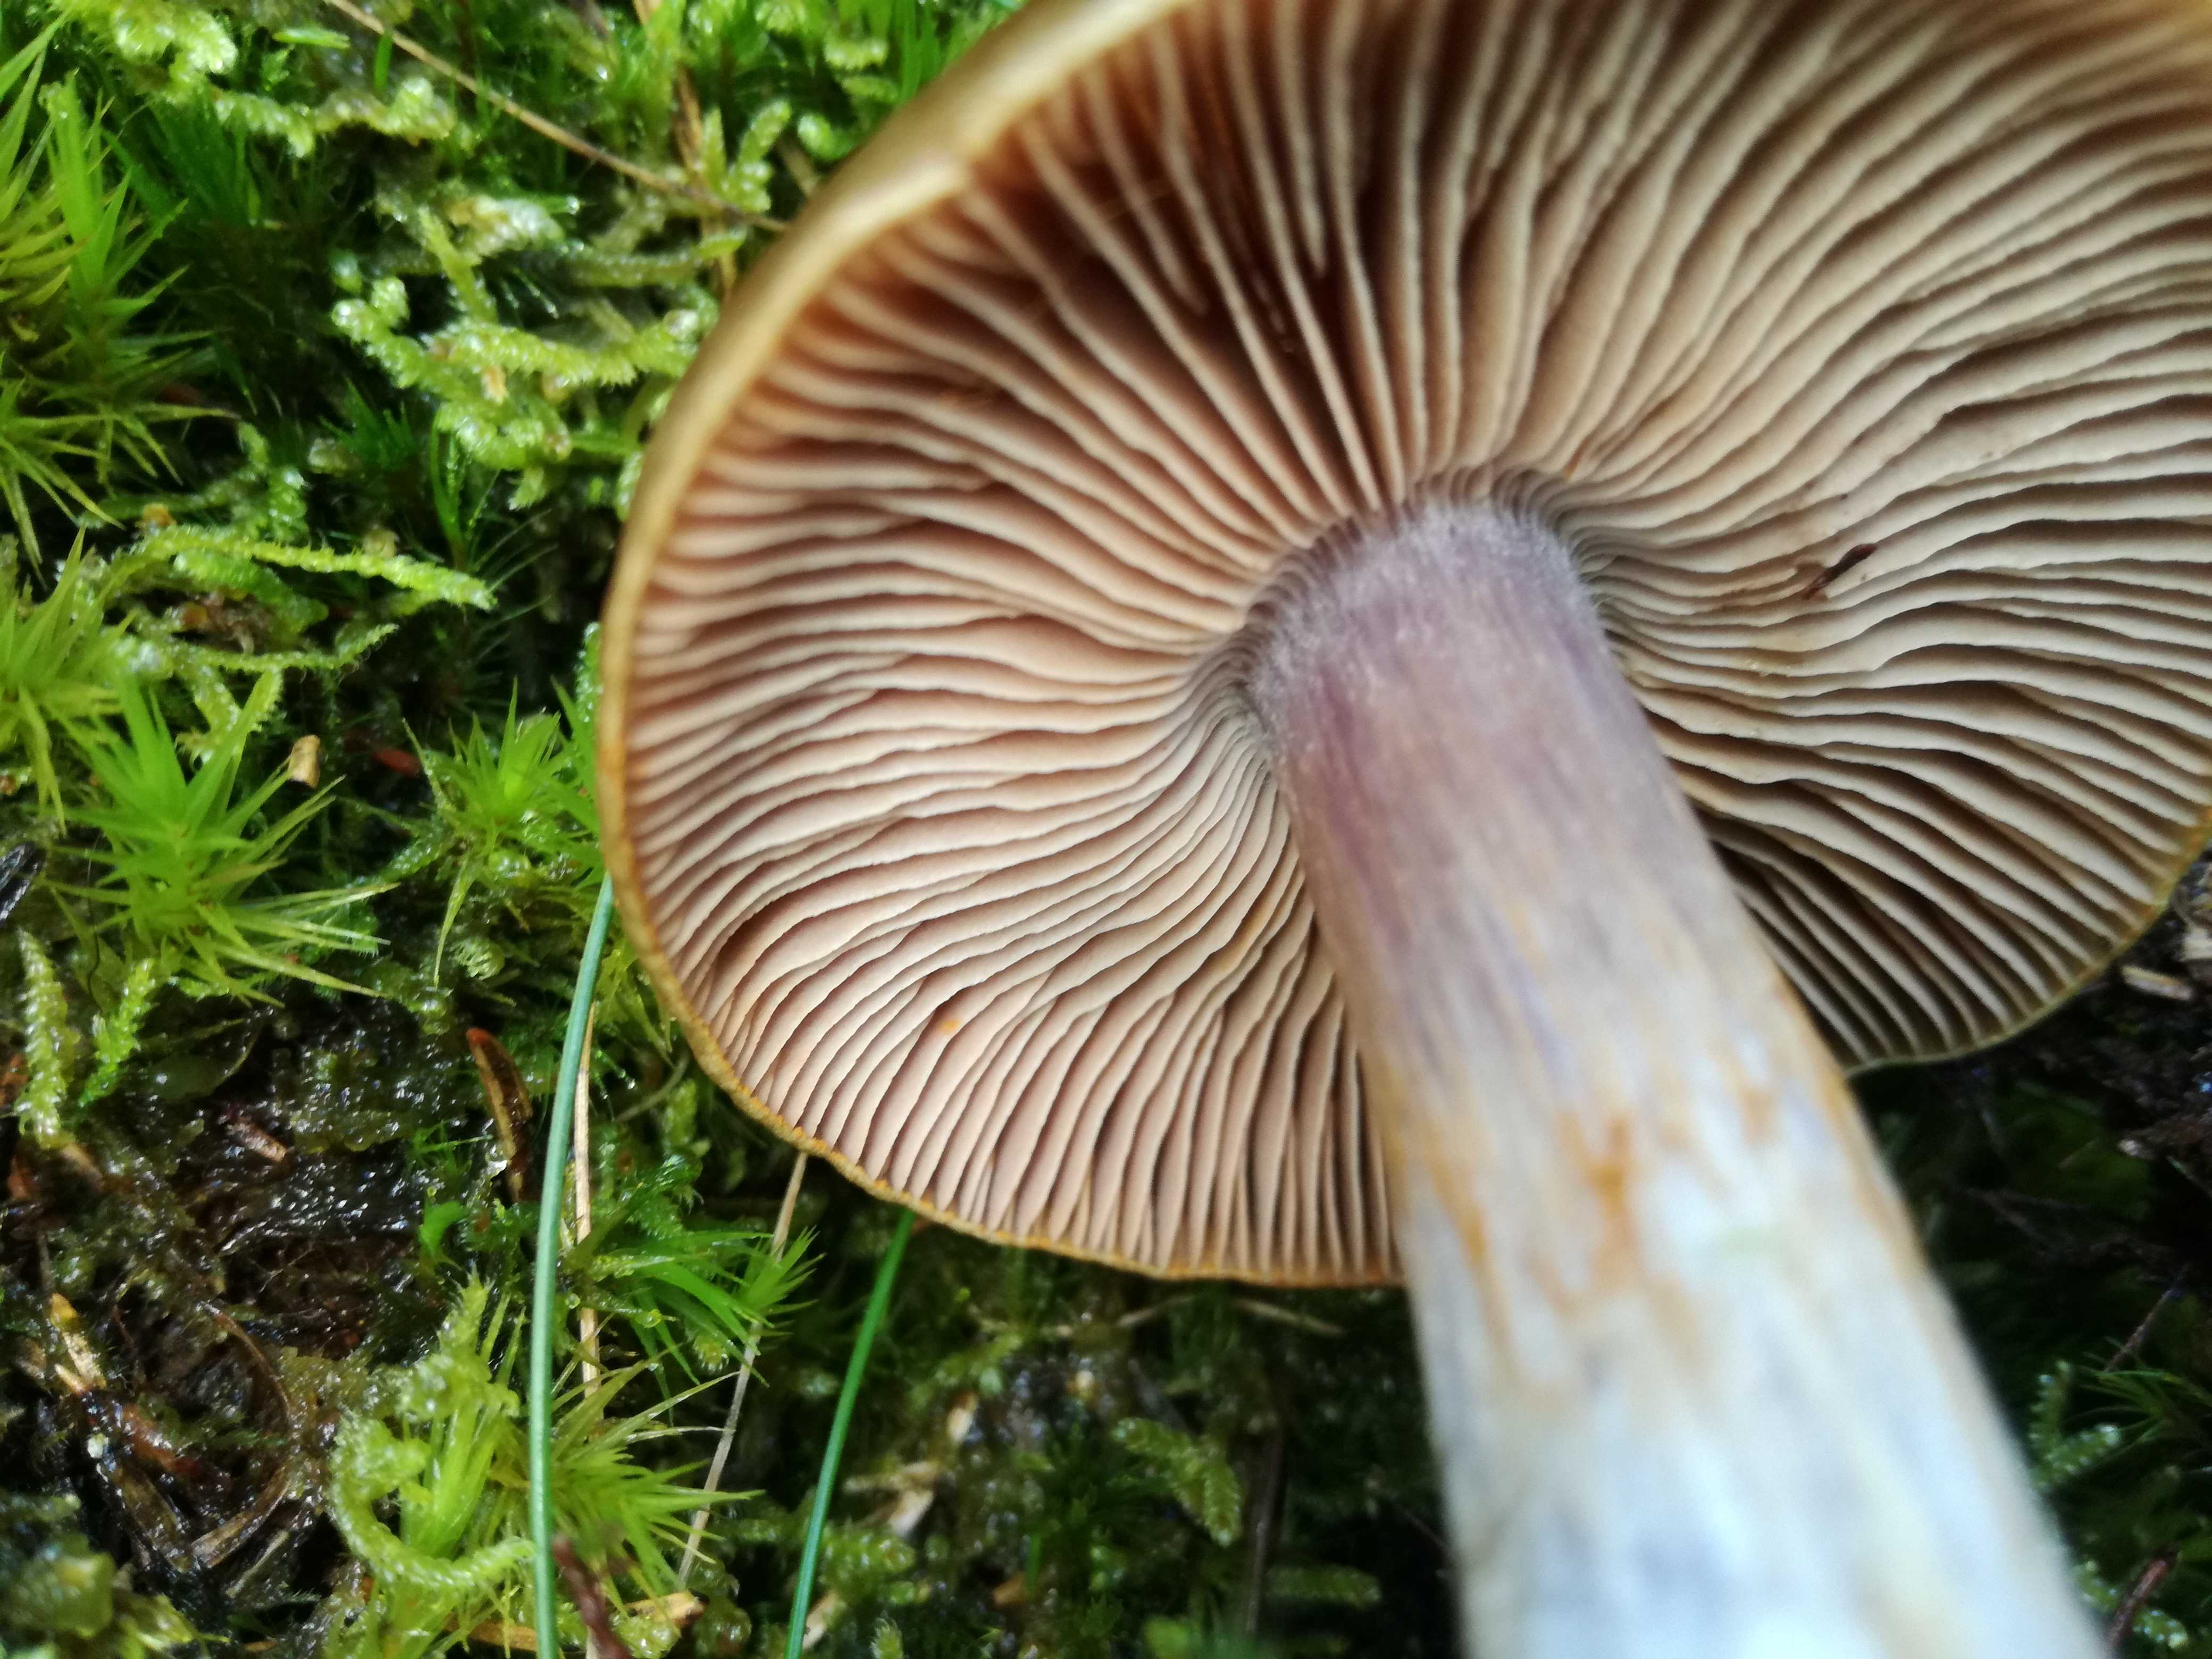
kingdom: Fungi
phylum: Basidiomycota
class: Agaricomycetes
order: Agaricales
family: Cortinariaceae
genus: Thaxterogaster
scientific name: Thaxterogaster sphagnophilus
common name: vandplettet slørhat
